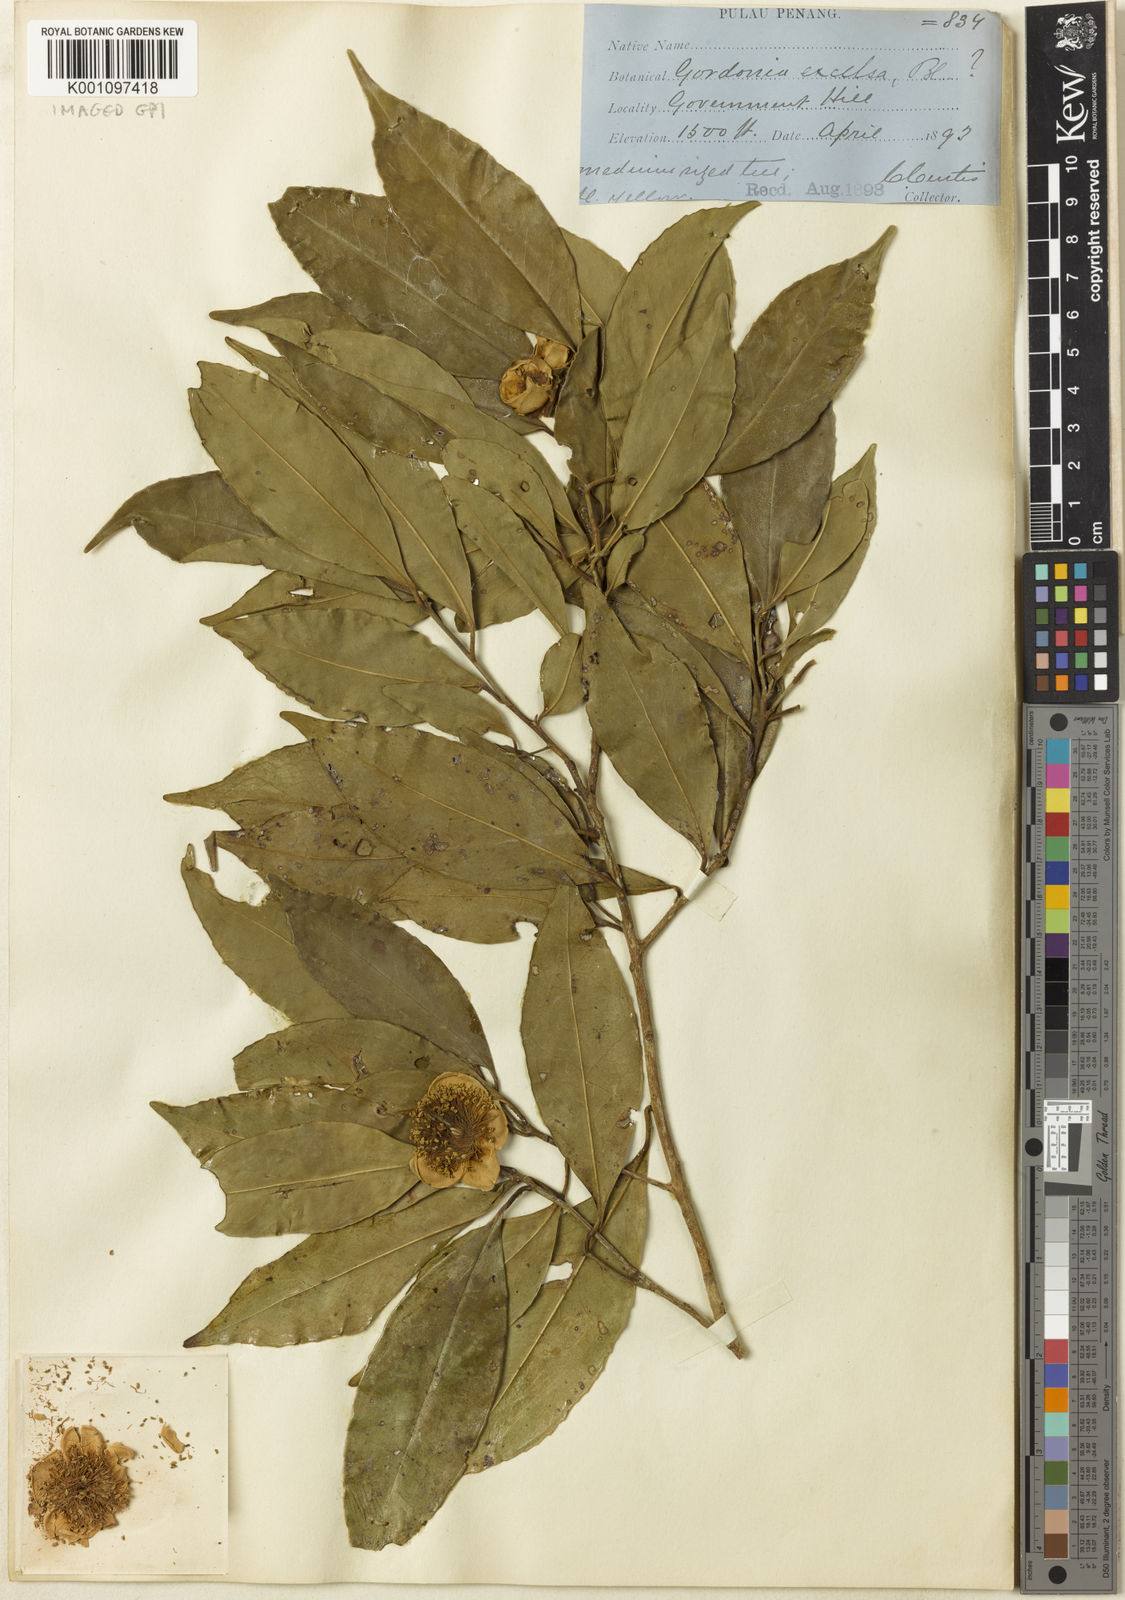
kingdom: Plantae
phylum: Tracheophyta
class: Magnoliopsida
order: Ericales
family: Theaceae
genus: Polyspora
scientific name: Polyspora penangensis
